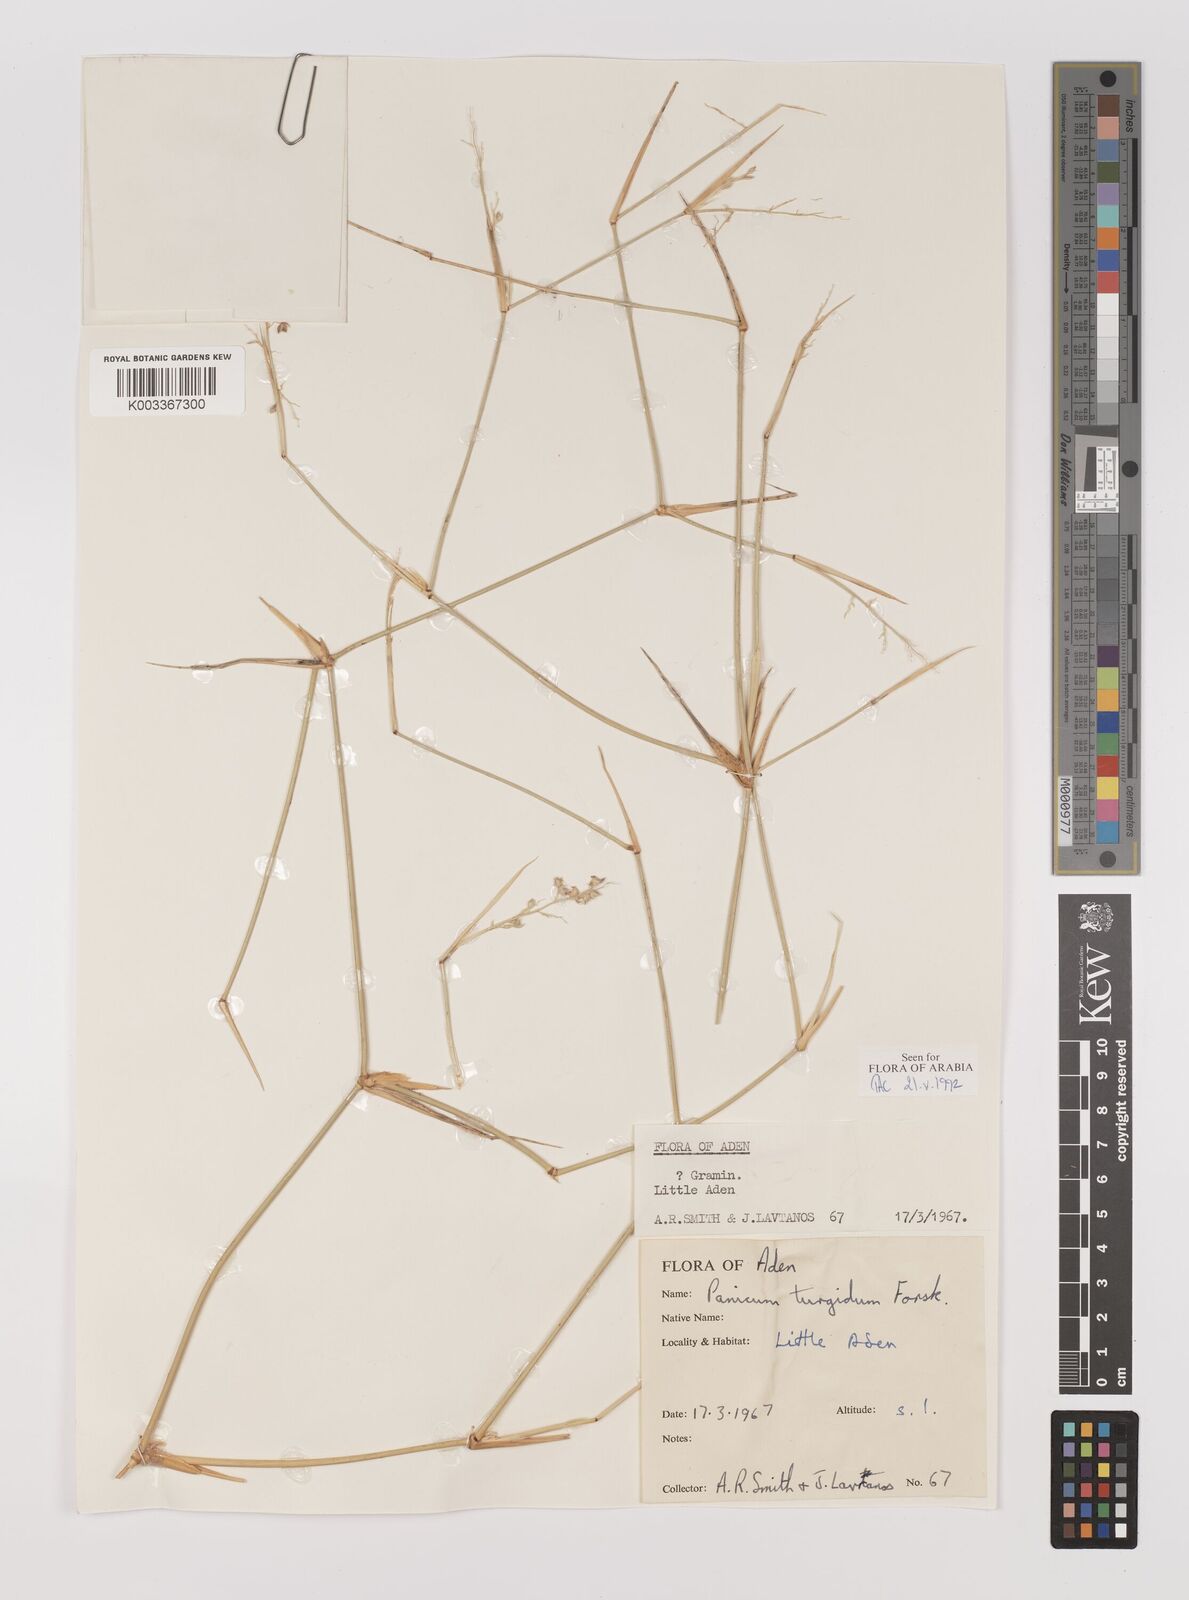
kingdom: Plantae
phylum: Tracheophyta
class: Liliopsida
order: Poales
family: Poaceae
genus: Panicum
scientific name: Panicum turgidum
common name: Desert grass
